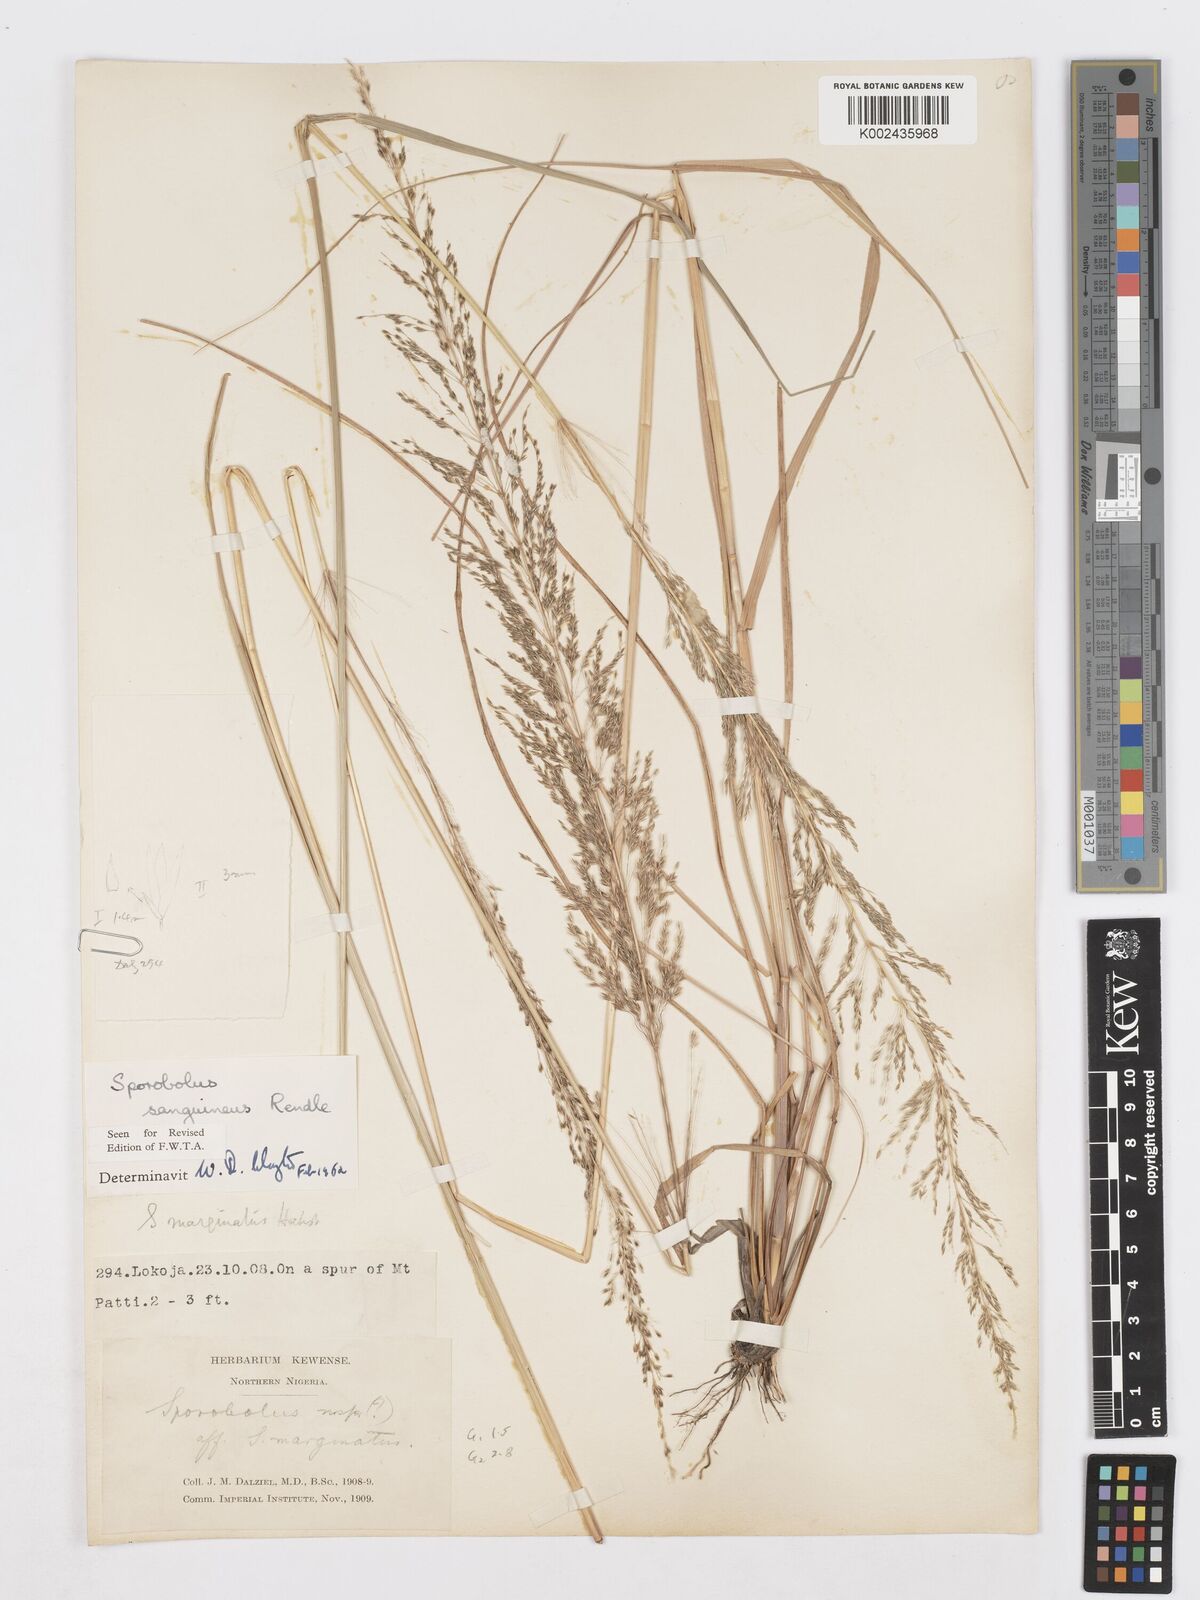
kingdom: Plantae
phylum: Tracheophyta
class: Liliopsida
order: Poales
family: Poaceae
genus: Sporobolus
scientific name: Sporobolus sanguineus
